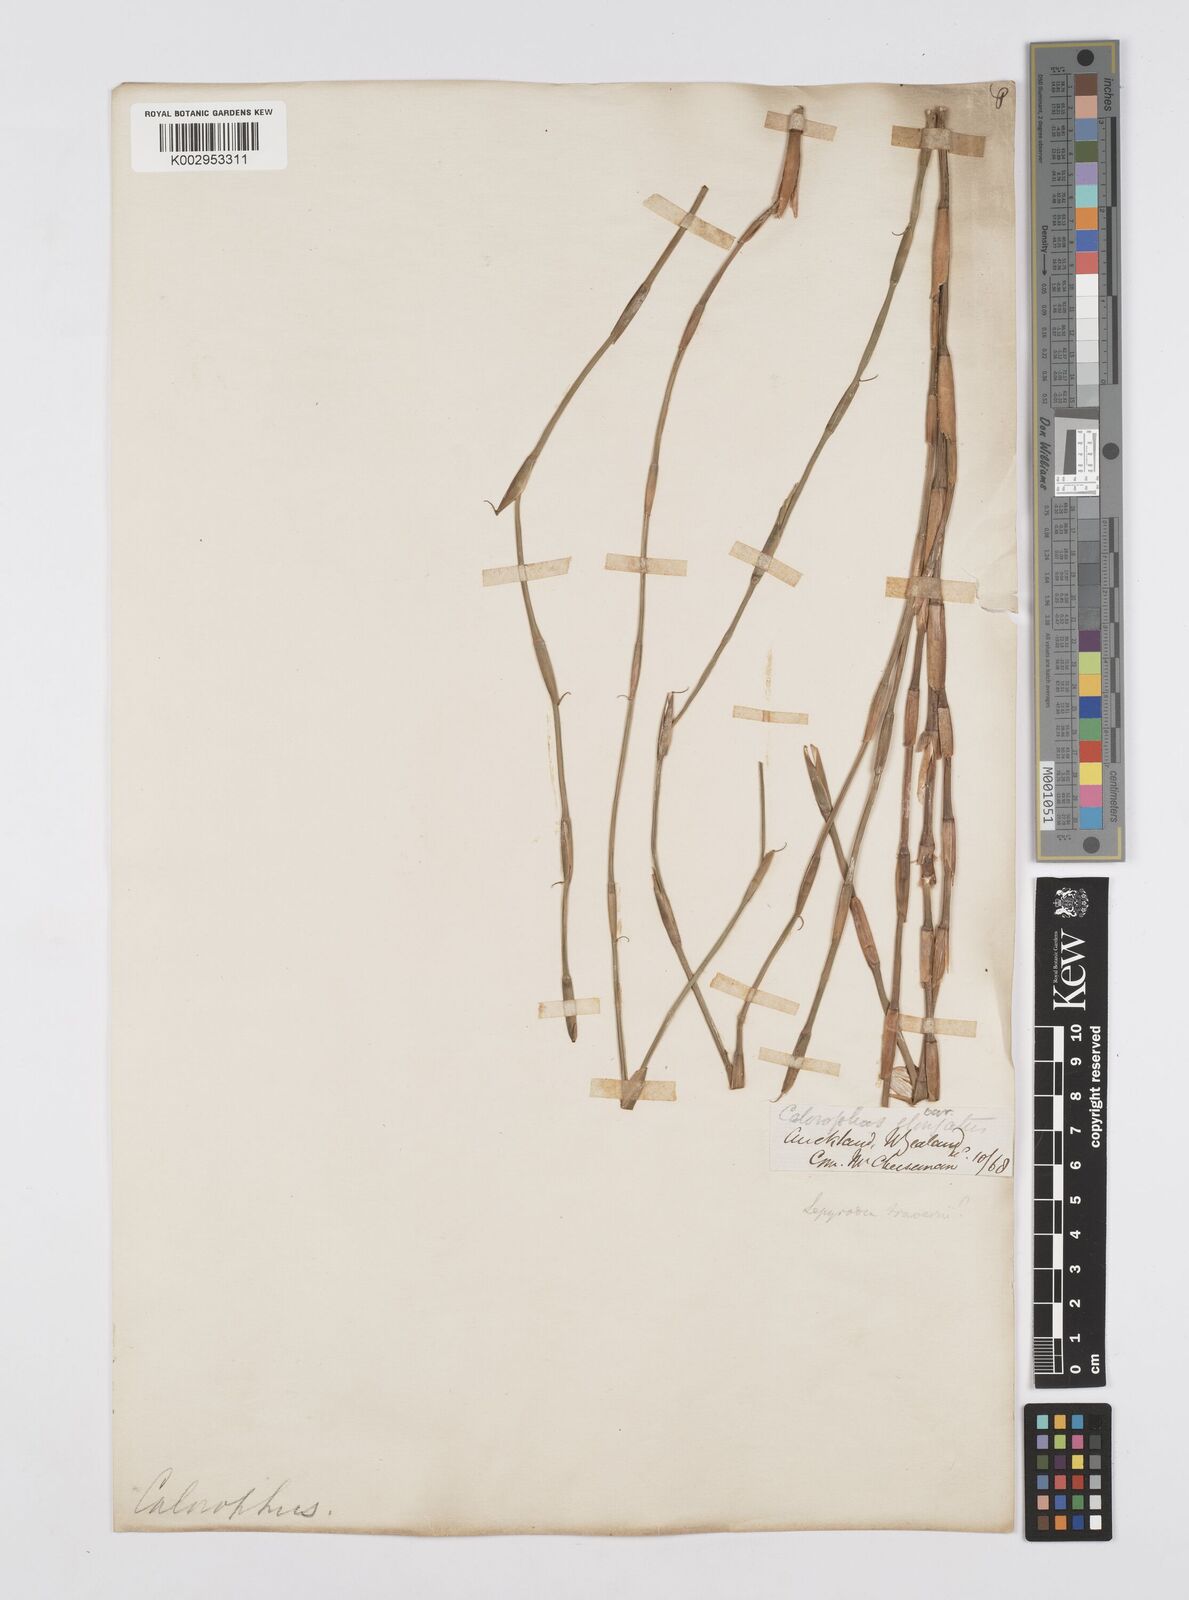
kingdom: Plantae
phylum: Tracheophyta
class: Liliopsida
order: Poales
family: Restionaceae
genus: Sporadanthus
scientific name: Sporadanthus traversii
